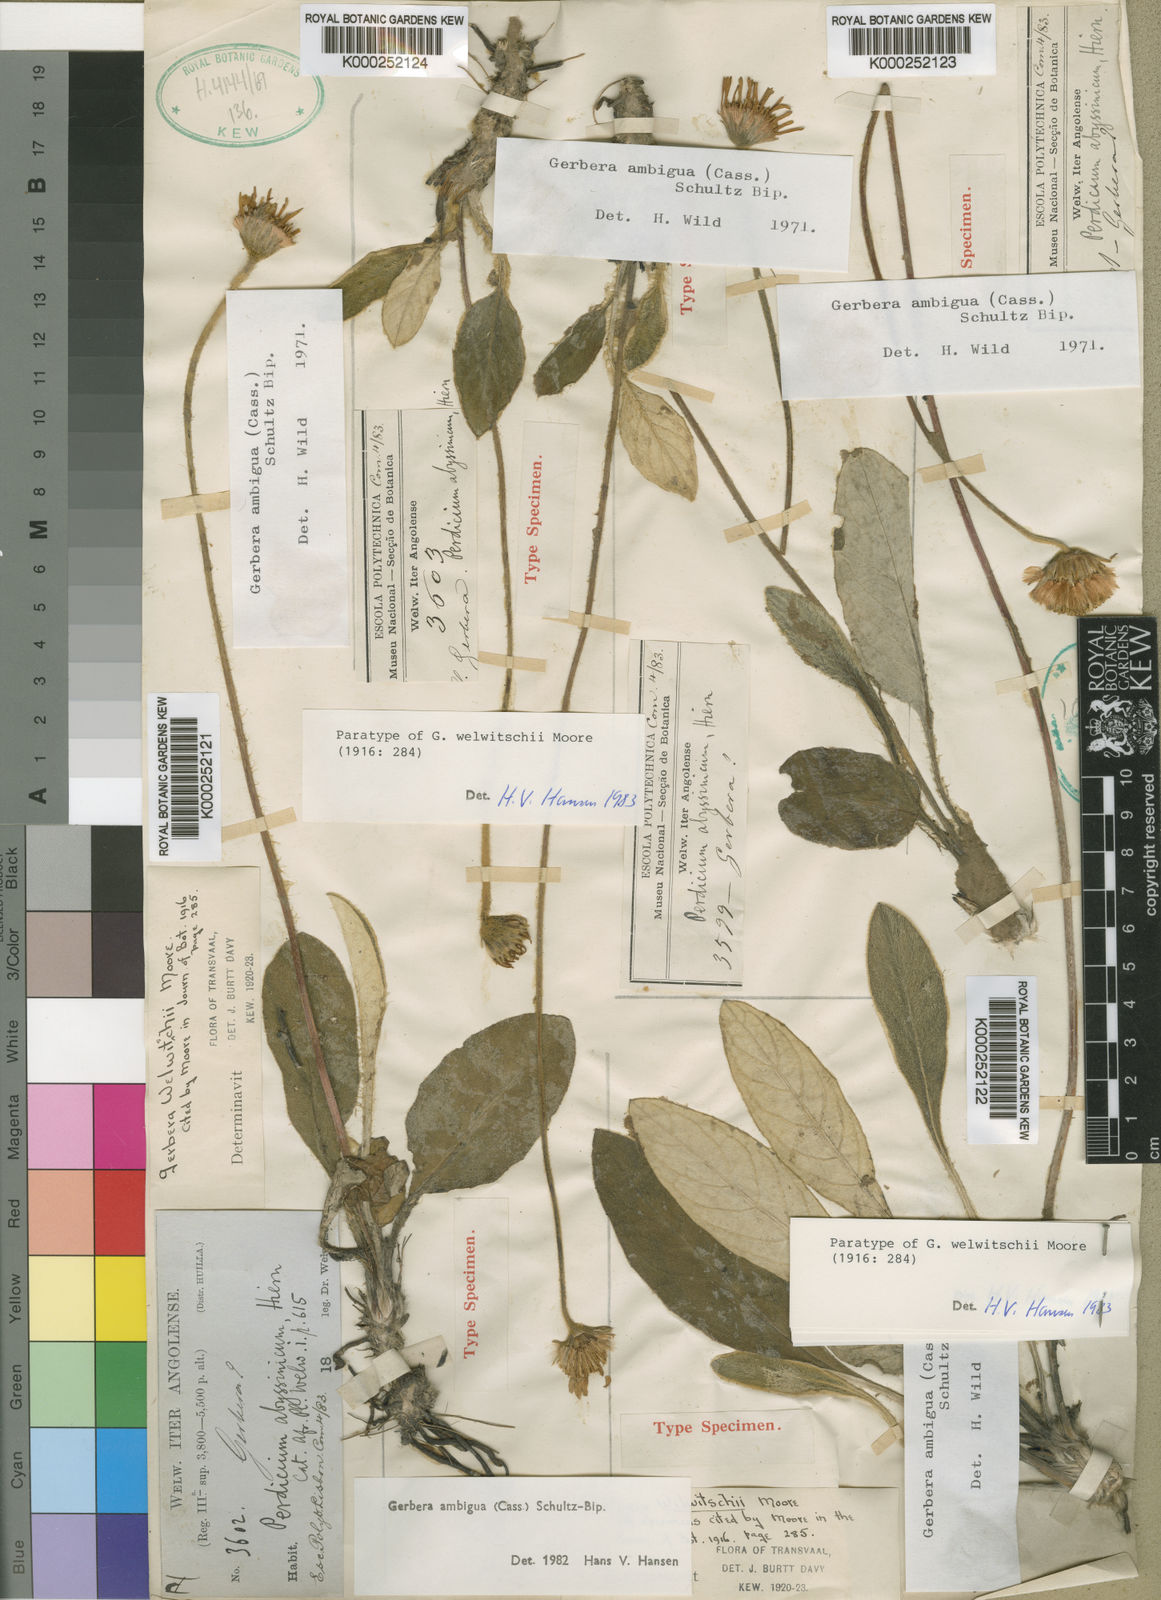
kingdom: Plantae
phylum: Tracheophyta
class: Magnoliopsida
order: Asterales
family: Asteraceae
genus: Gerbera
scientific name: Gerbera ambigua
